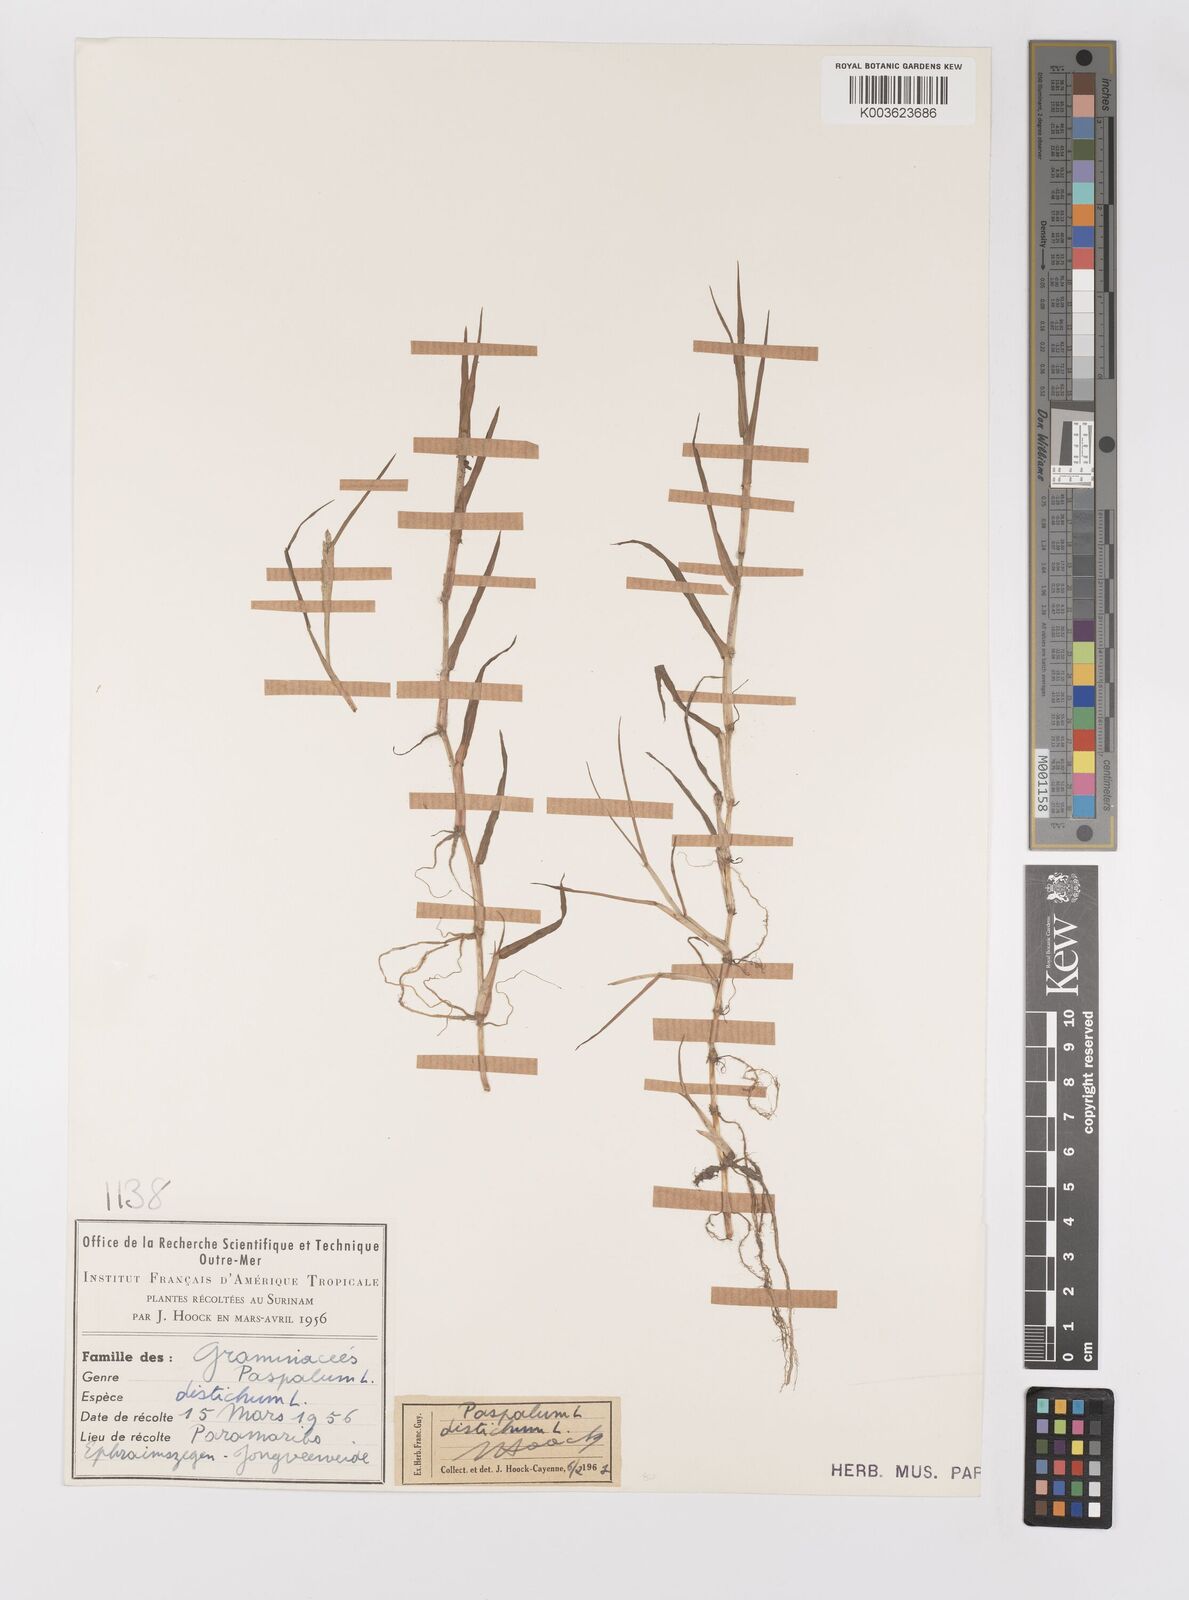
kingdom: Plantae
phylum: Tracheophyta
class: Liliopsida
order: Poales
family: Poaceae
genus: Paspalum
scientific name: Paspalum distichum
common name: Knotgrass
